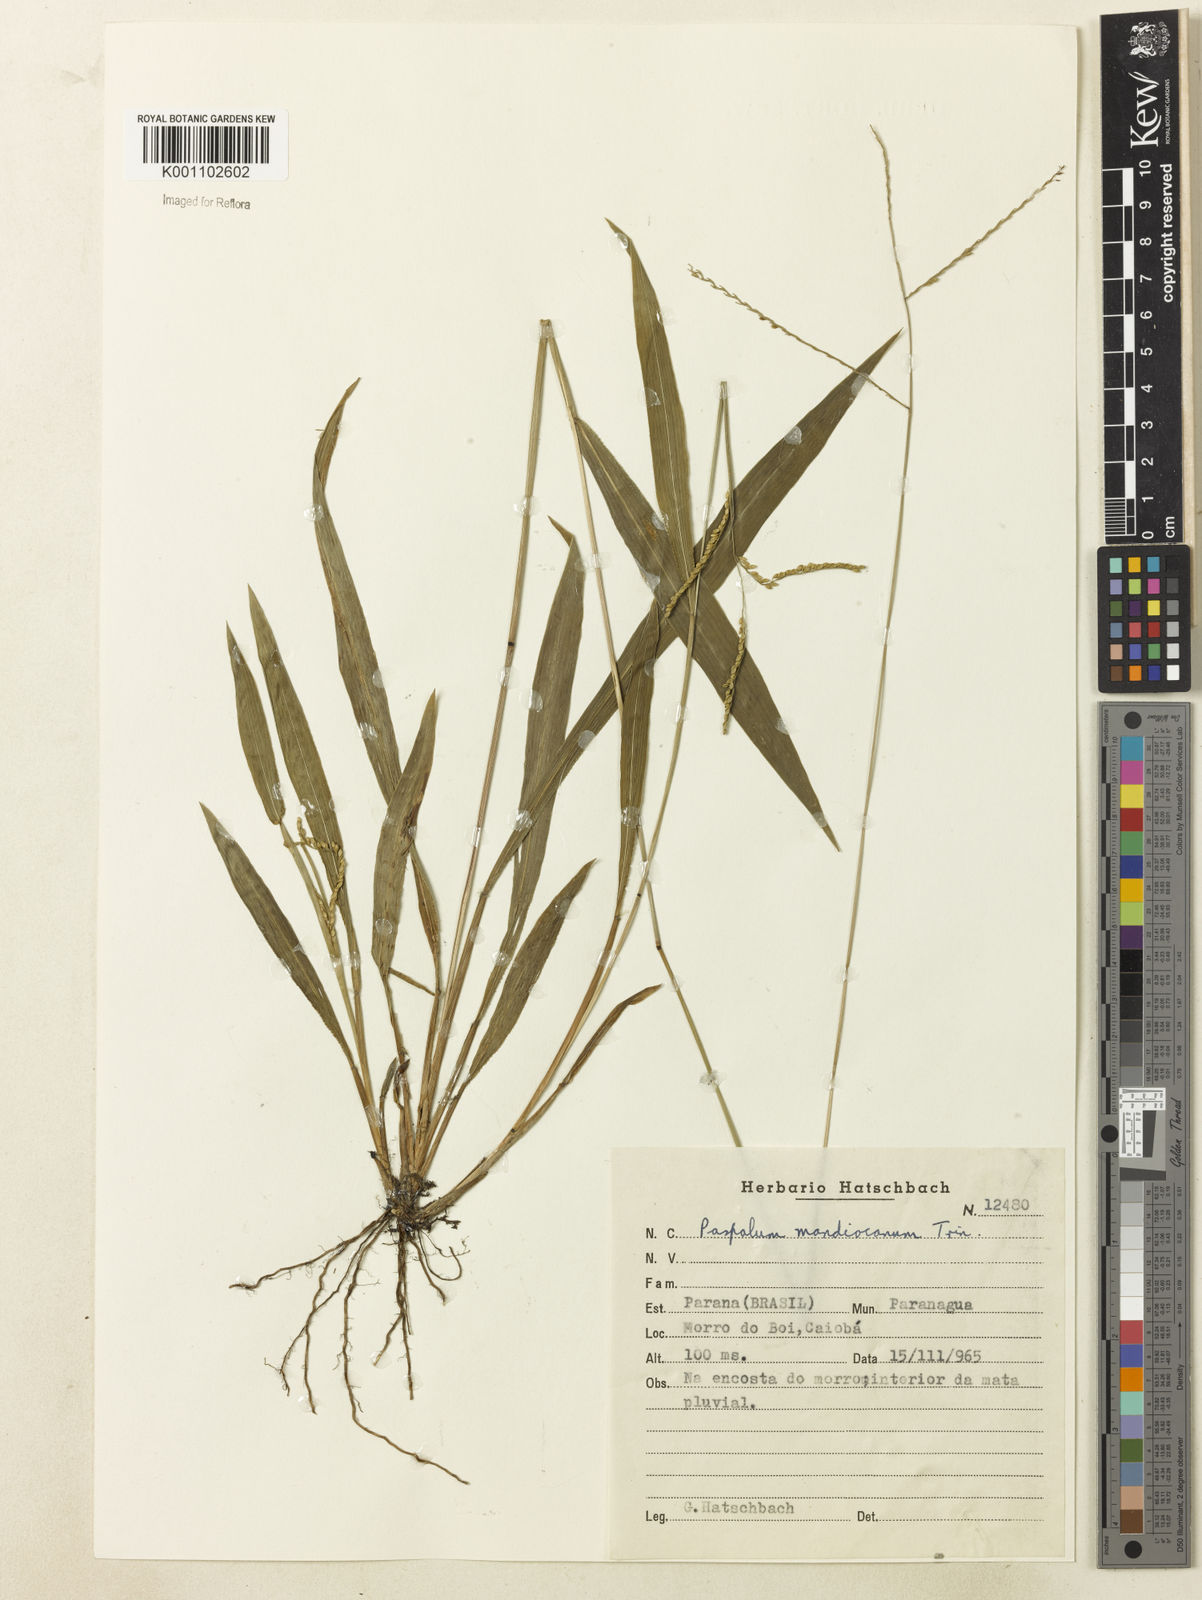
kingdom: Plantae
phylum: Tracheophyta
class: Liliopsida
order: Poales
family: Poaceae
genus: Paspalum
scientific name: Paspalum molle
